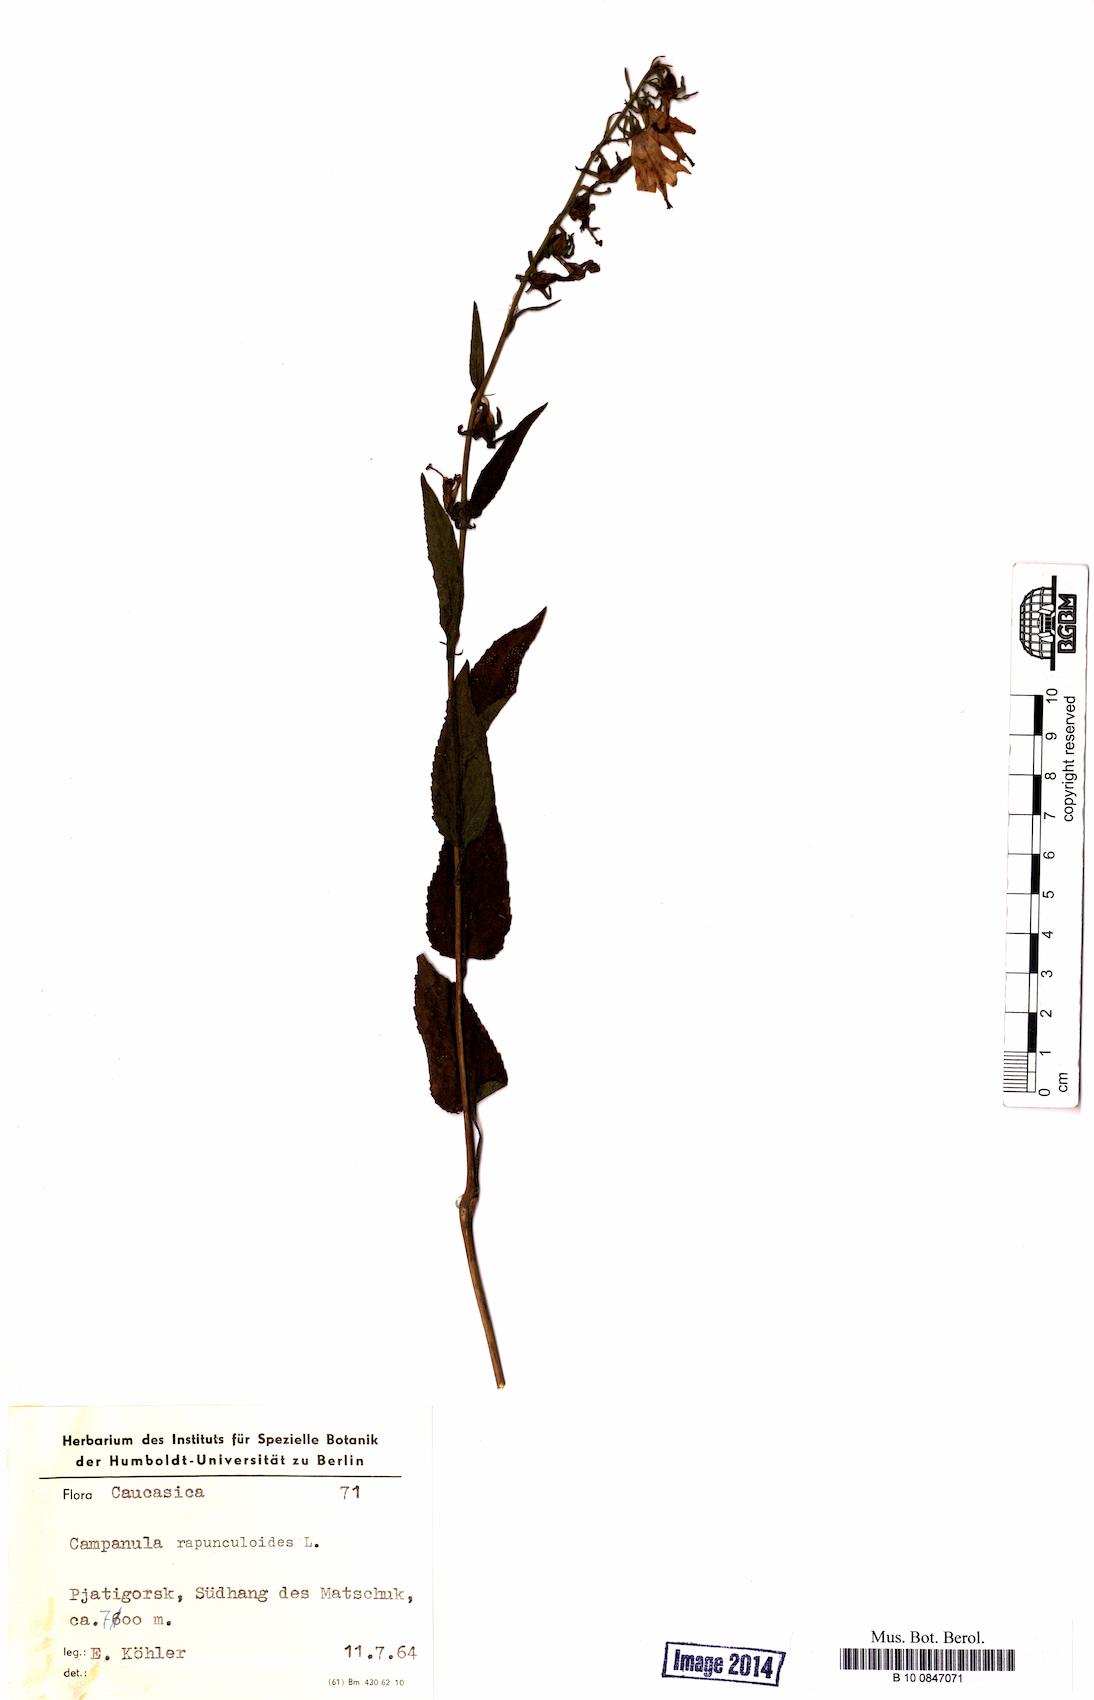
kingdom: Plantae
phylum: Tracheophyta
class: Magnoliopsida
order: Asterales
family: Campanulaceae
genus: Campanula
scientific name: Campanula rapunculoides
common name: Creeping bellflower
